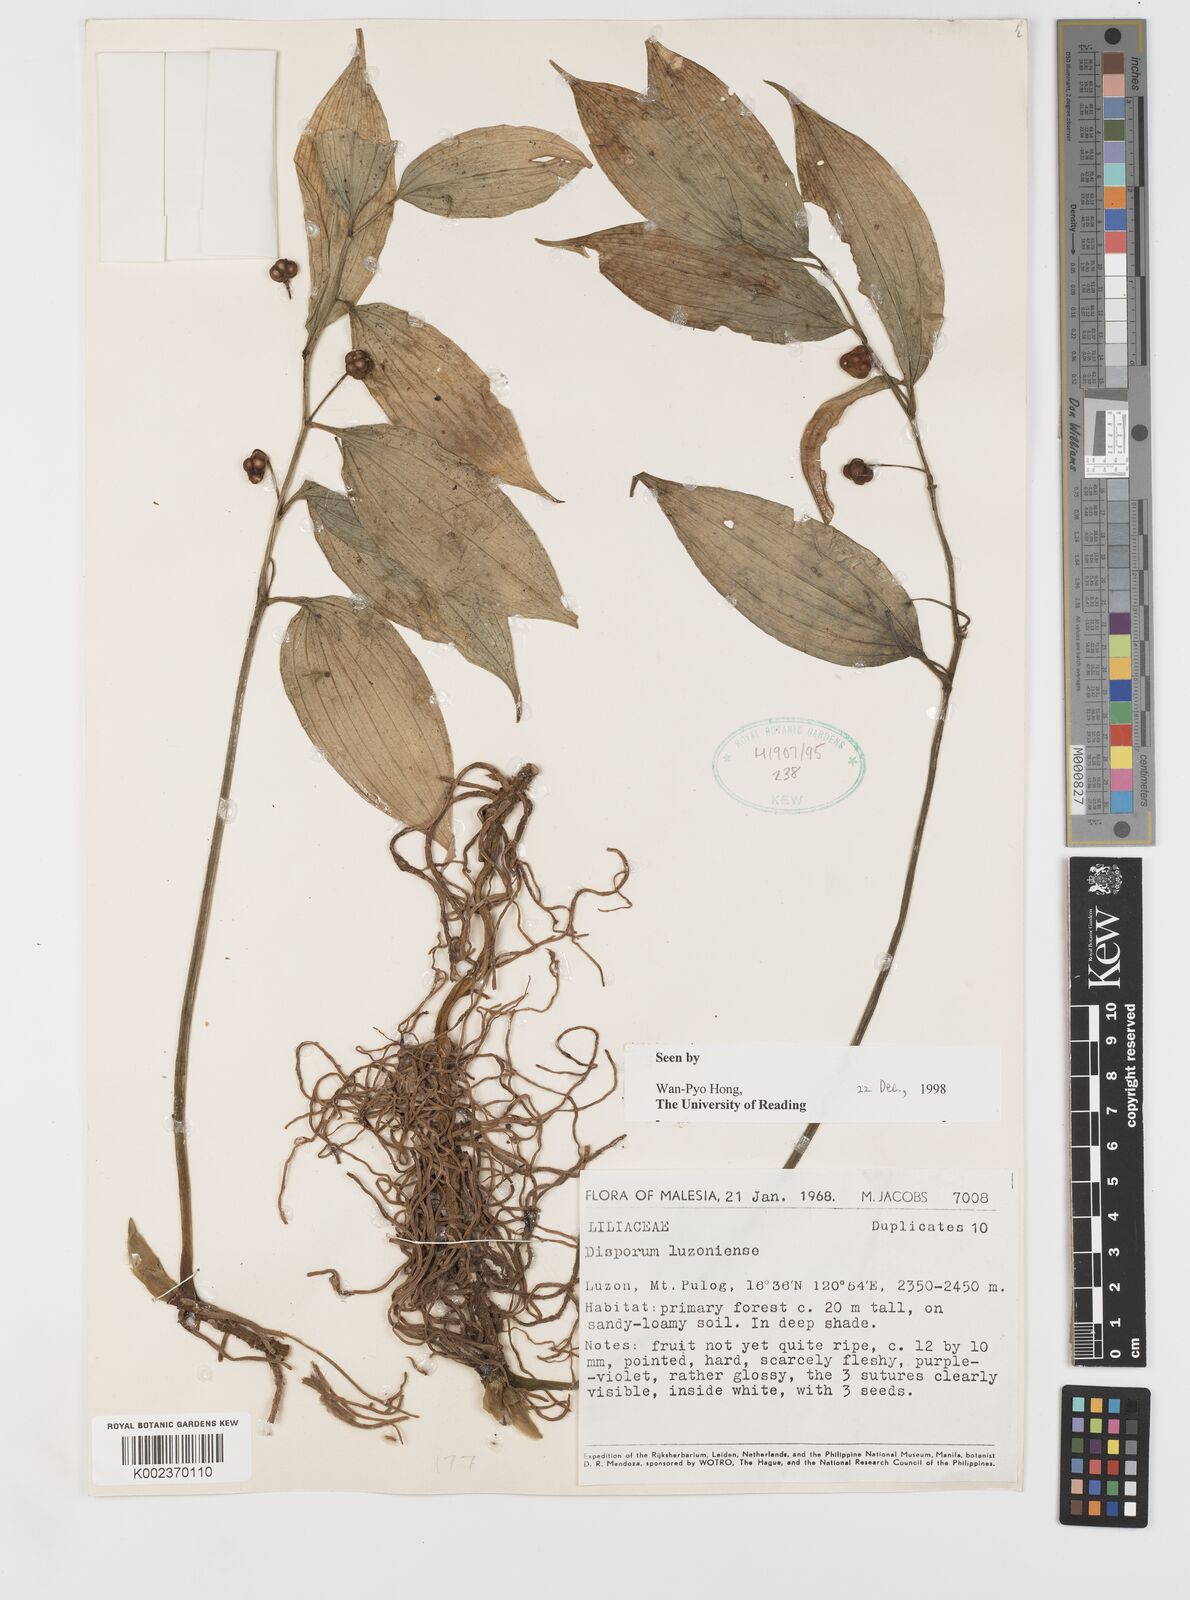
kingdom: Plantae
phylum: Tracheophyta
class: Liliopsida
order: Asparagales
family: Asparagaceae
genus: Disporopsis
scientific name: Disporopsis luzoniensis
